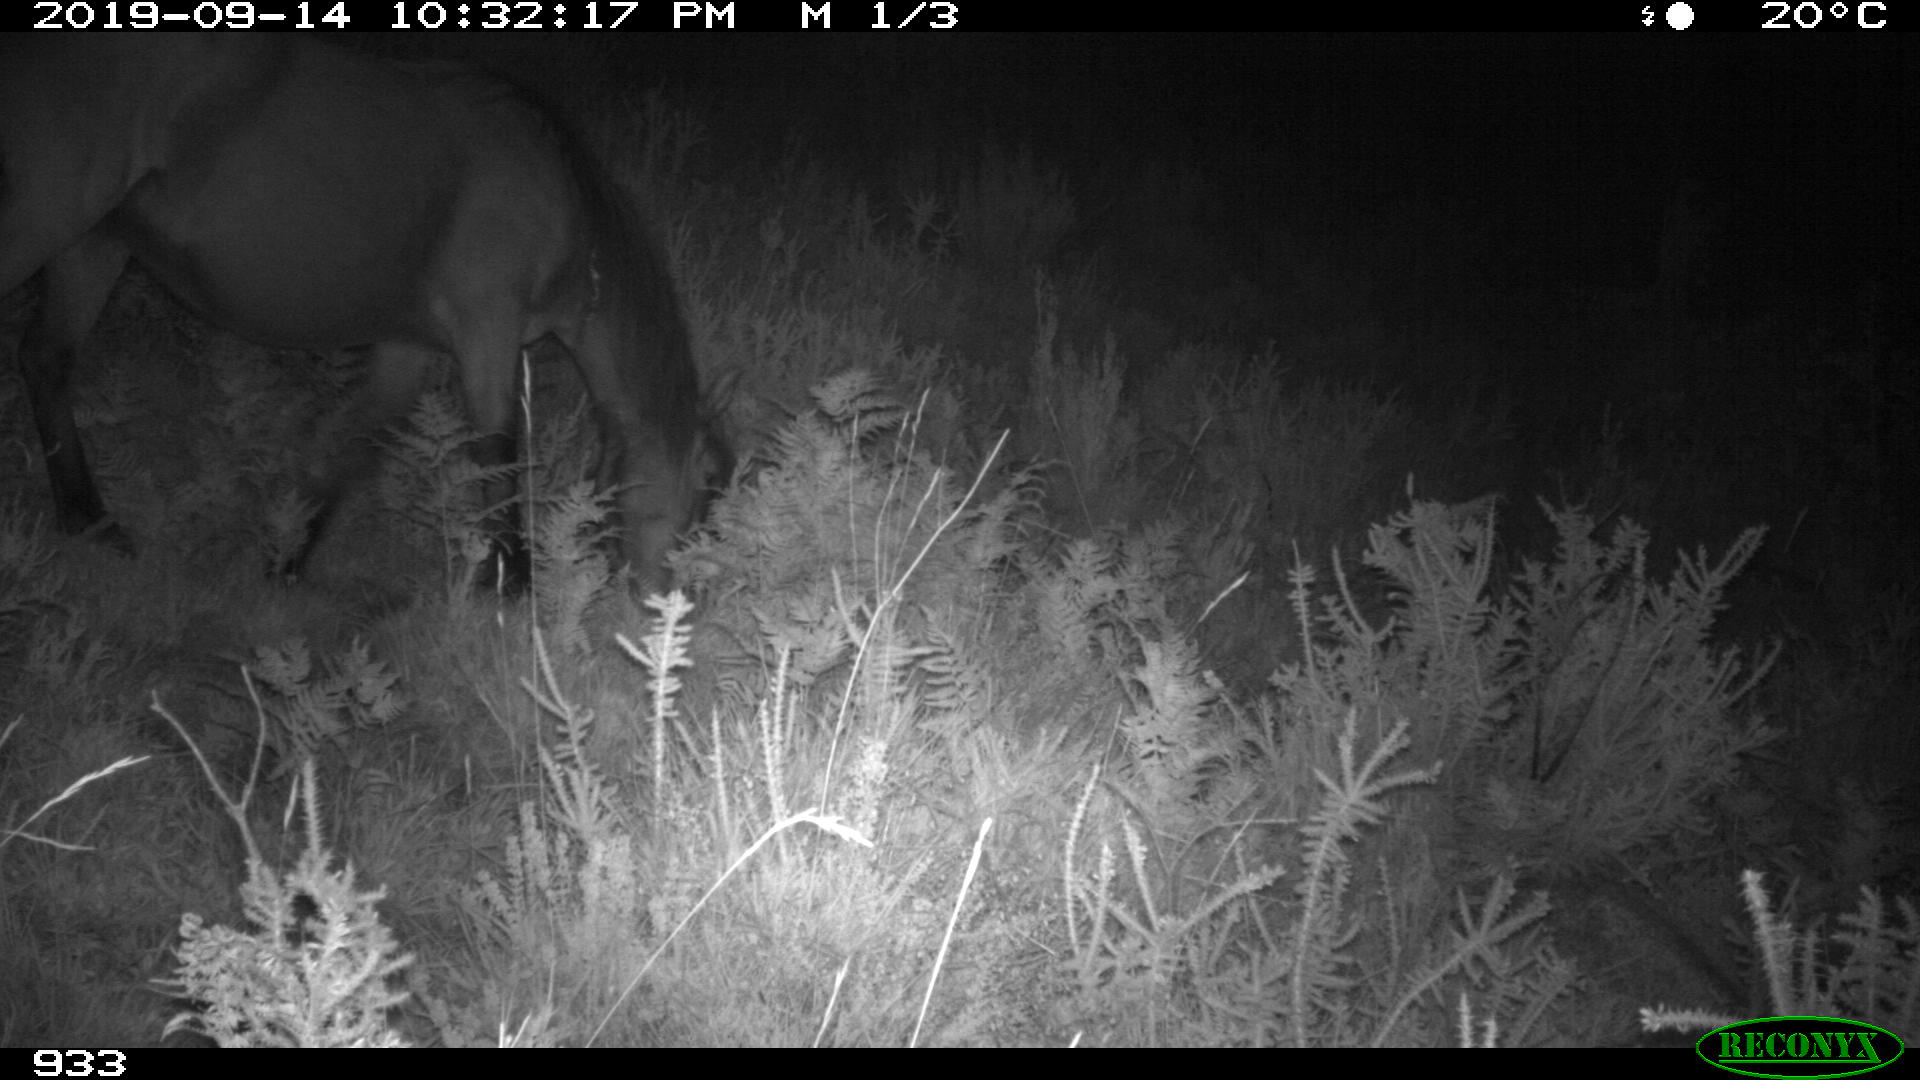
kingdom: Animalia
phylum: Chordata
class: Mammalia
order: Perissodactyla
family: Equidae
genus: Equus
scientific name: Equus caballus
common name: Horse
